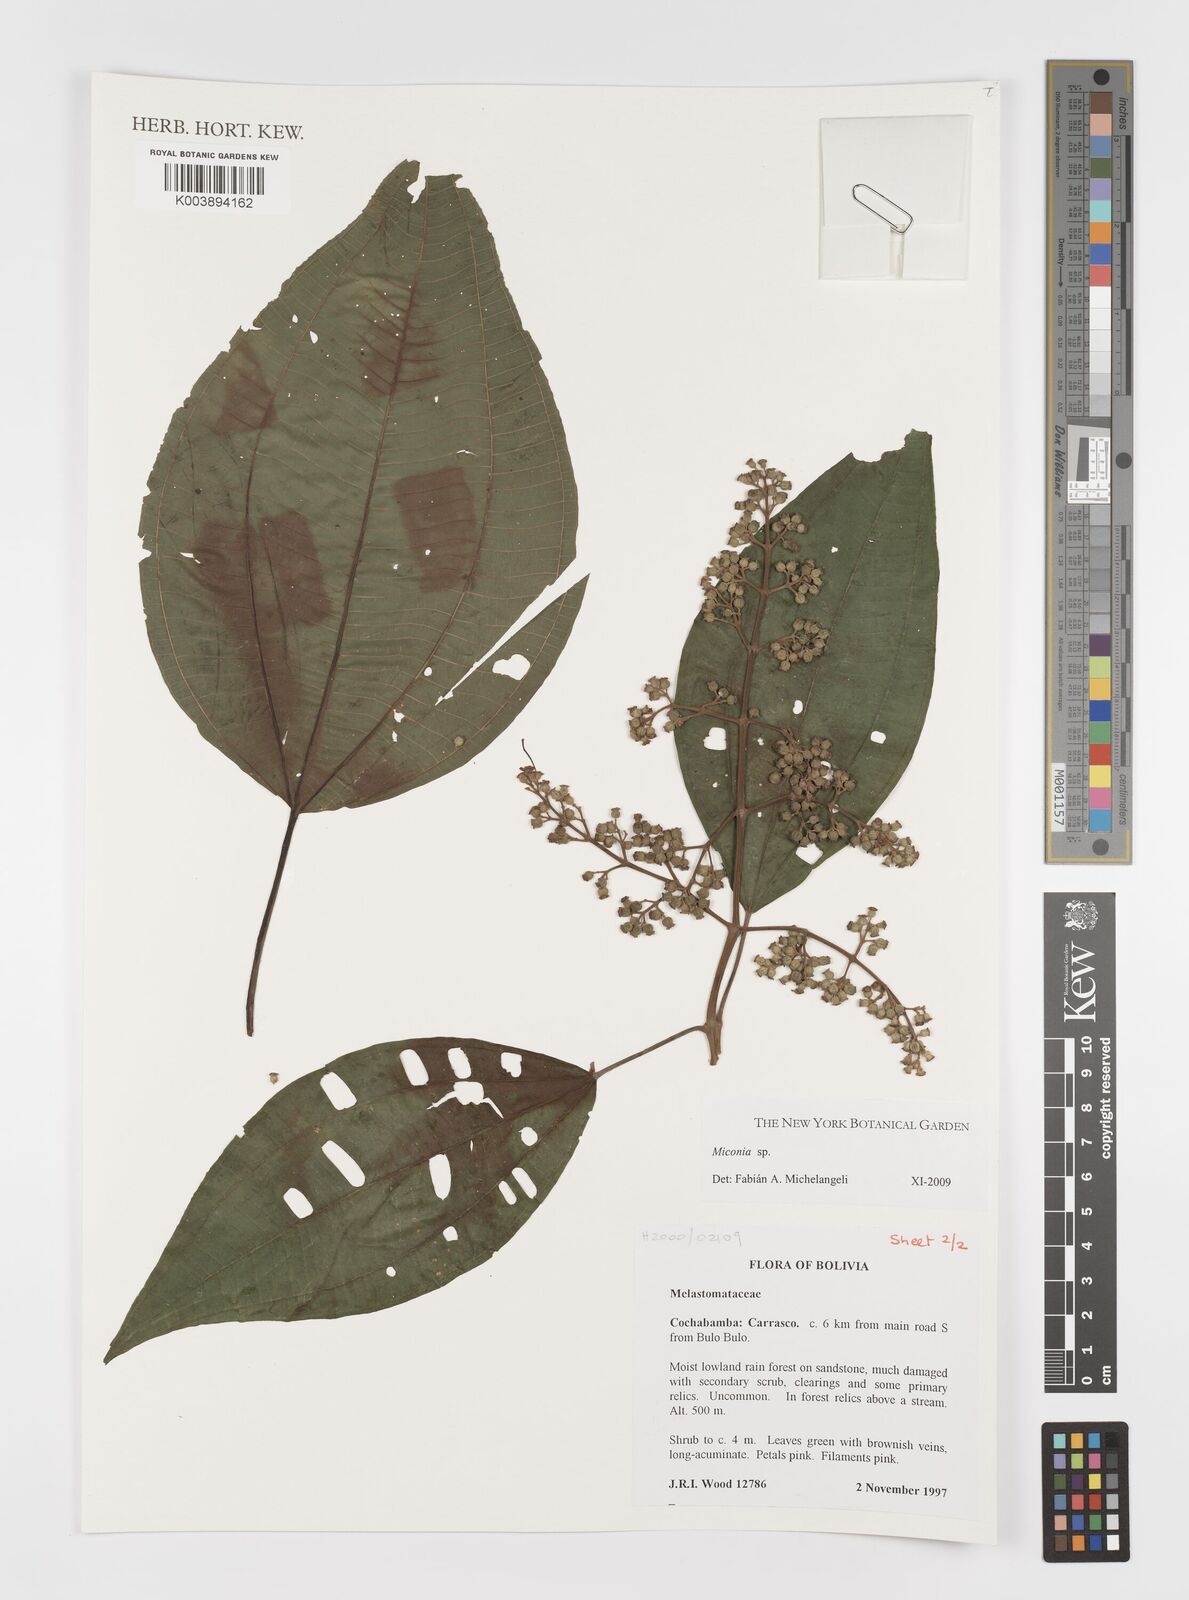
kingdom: Plantae
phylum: Tracheophyta
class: Magnoliopsida
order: Myrtales
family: Melastomataceae
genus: Miconia
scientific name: Miconia
